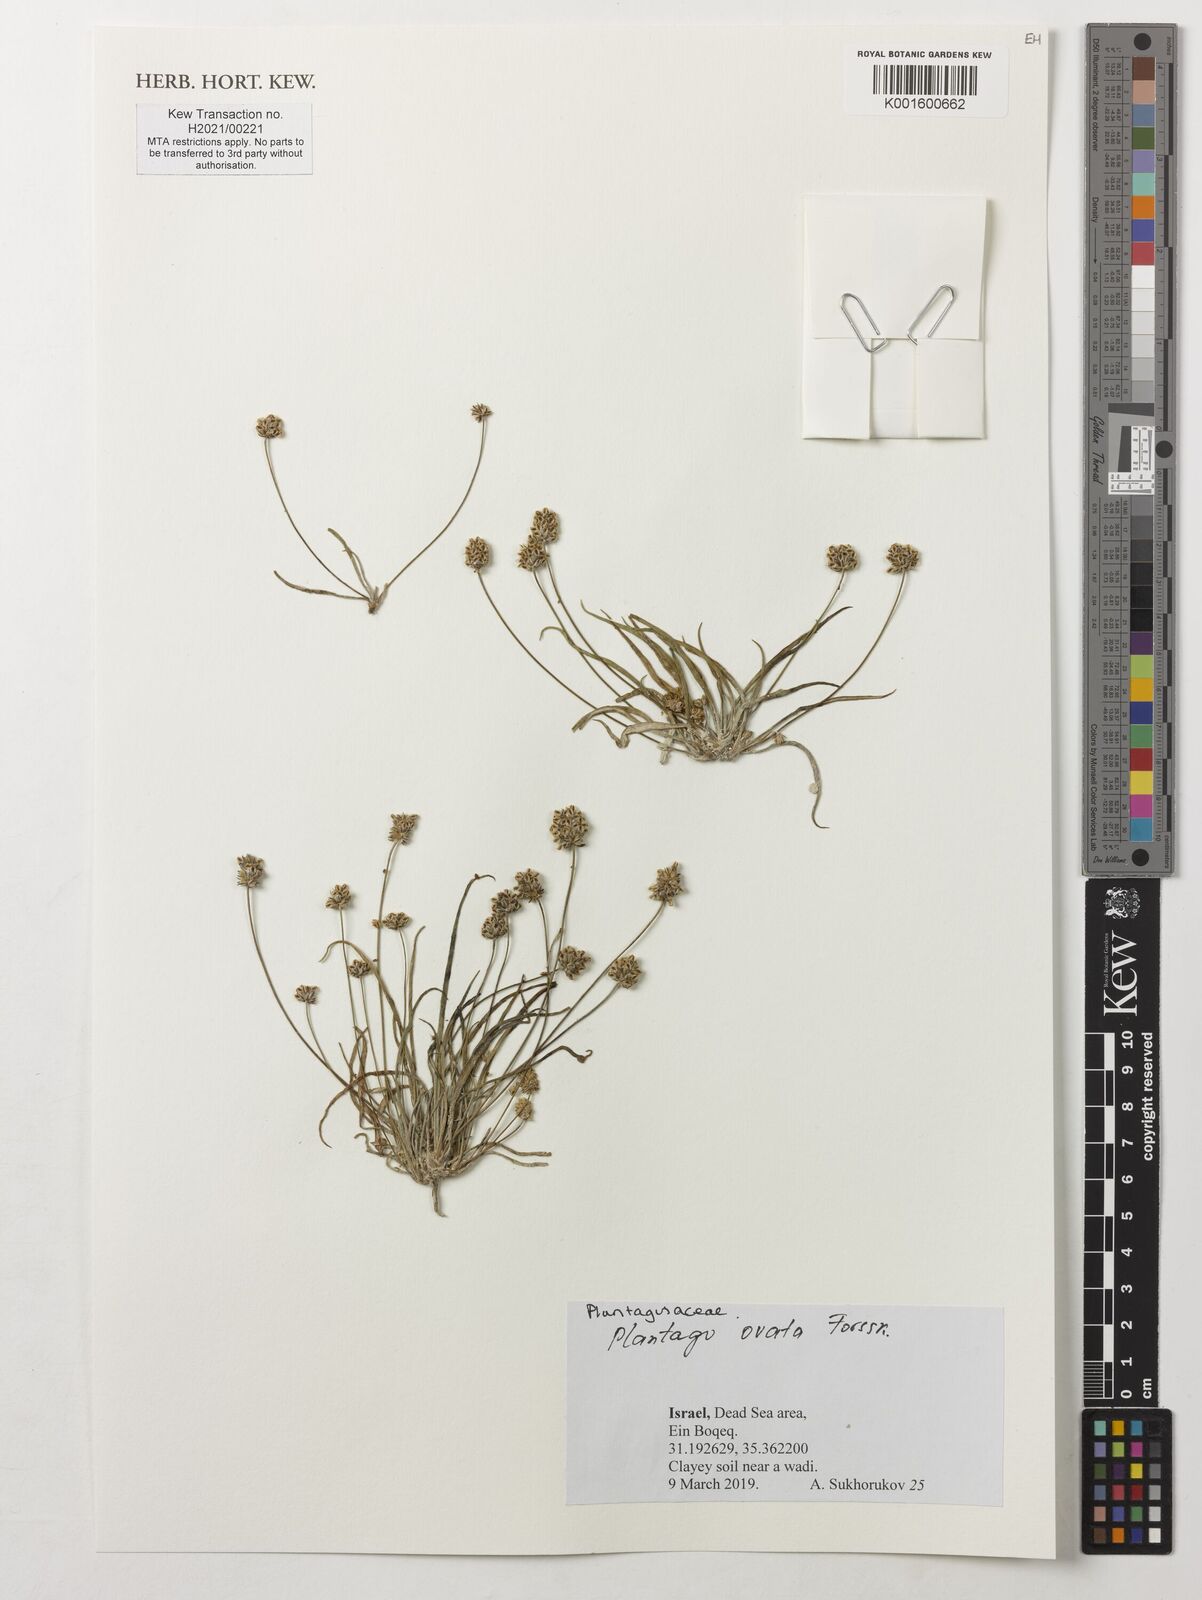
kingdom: Plantae
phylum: Tracheophyta
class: Magnoliopsida
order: Lamiales
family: Plantaginaceae
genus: Plantago
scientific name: Plantago ovata
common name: Blond plantain
